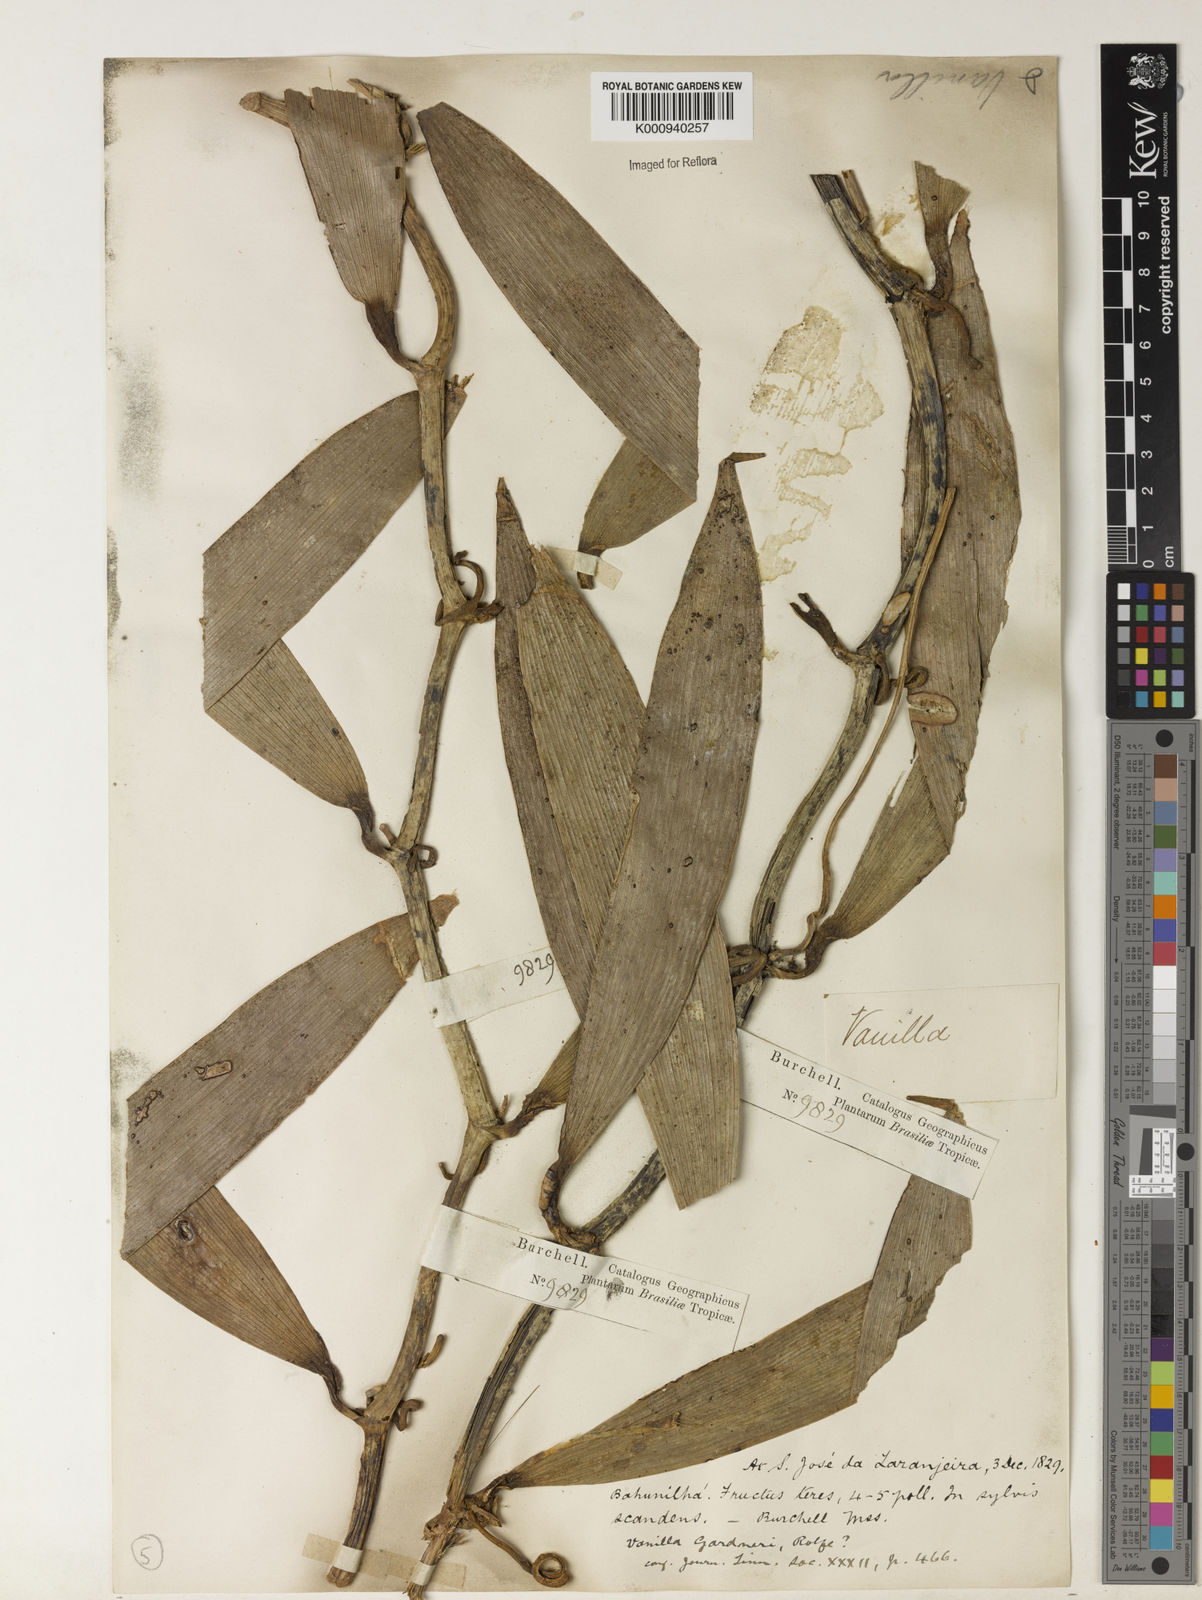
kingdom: Plantae
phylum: Tracheophyta
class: Liliopsida
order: Asparagales
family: Orchidaceae
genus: Vanilla
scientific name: Vanilla ruiziana
